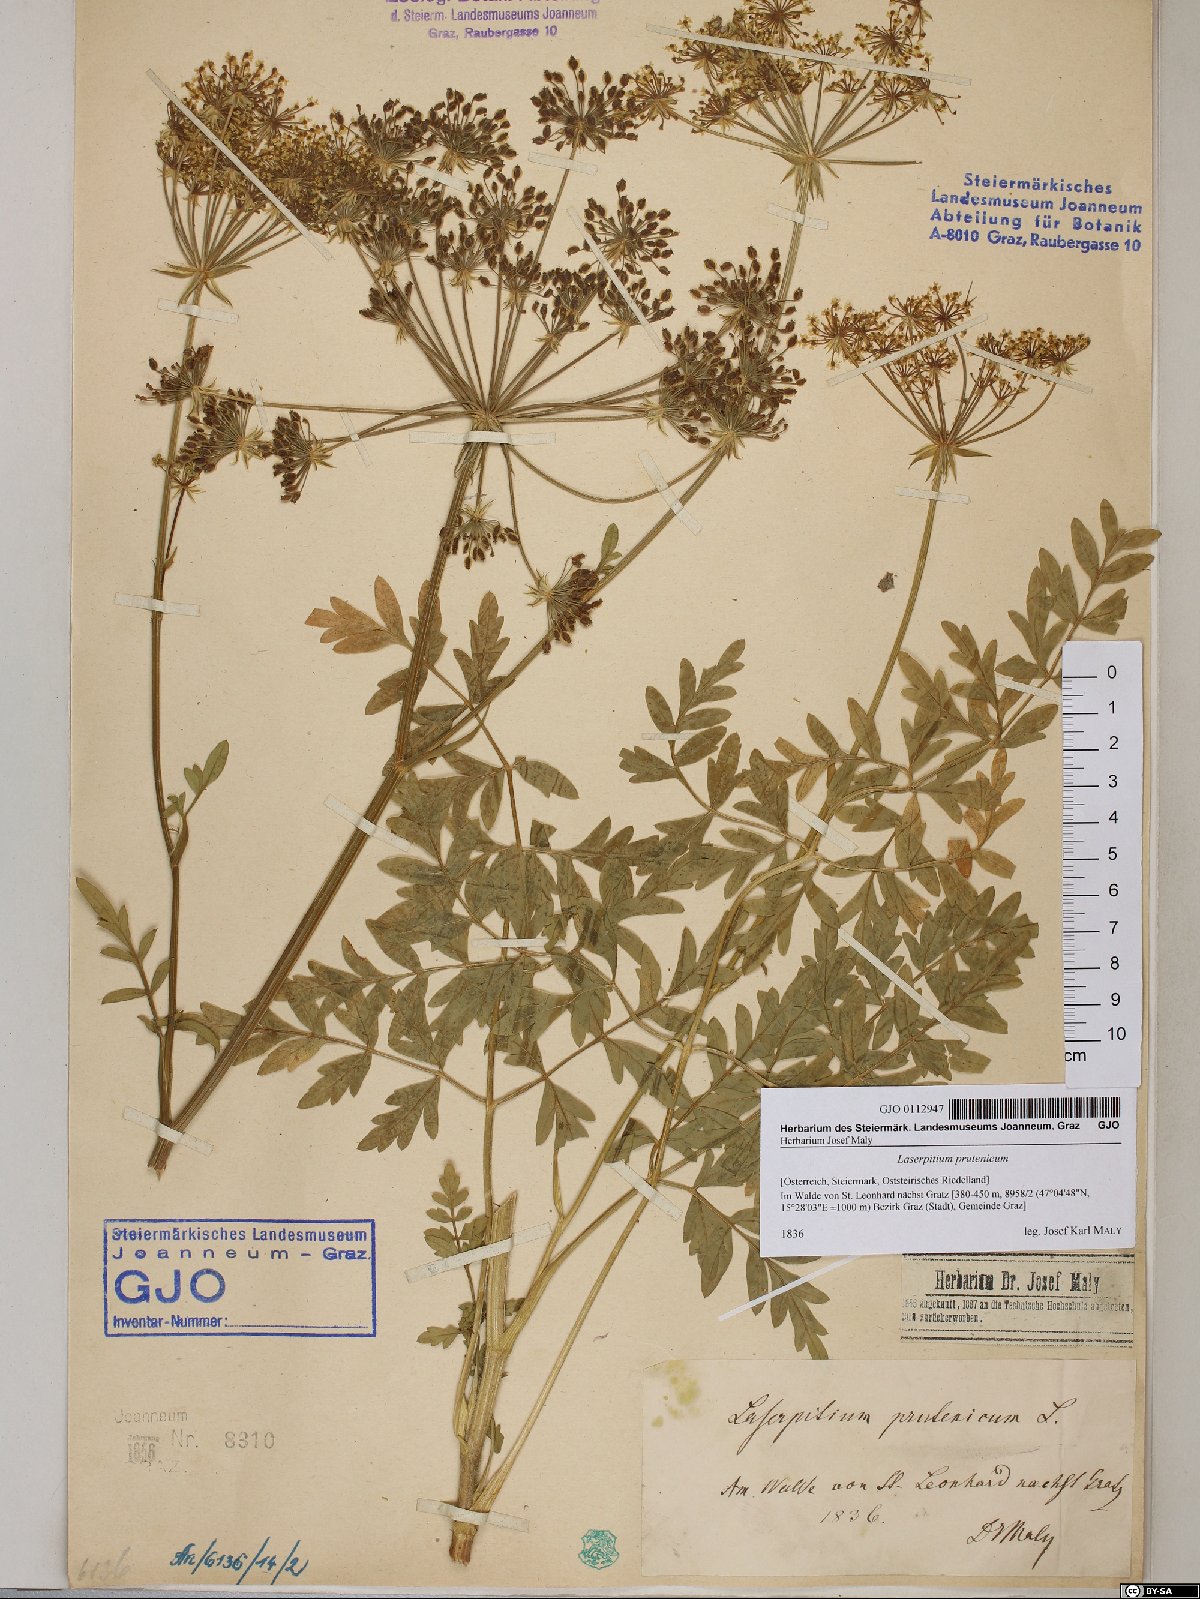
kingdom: Plantae
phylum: Tracheophyta
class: Magnoliopsida
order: Apiales
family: Apiaceae
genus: Silphiodaucus
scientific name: Silphiodaucus prutenicus
